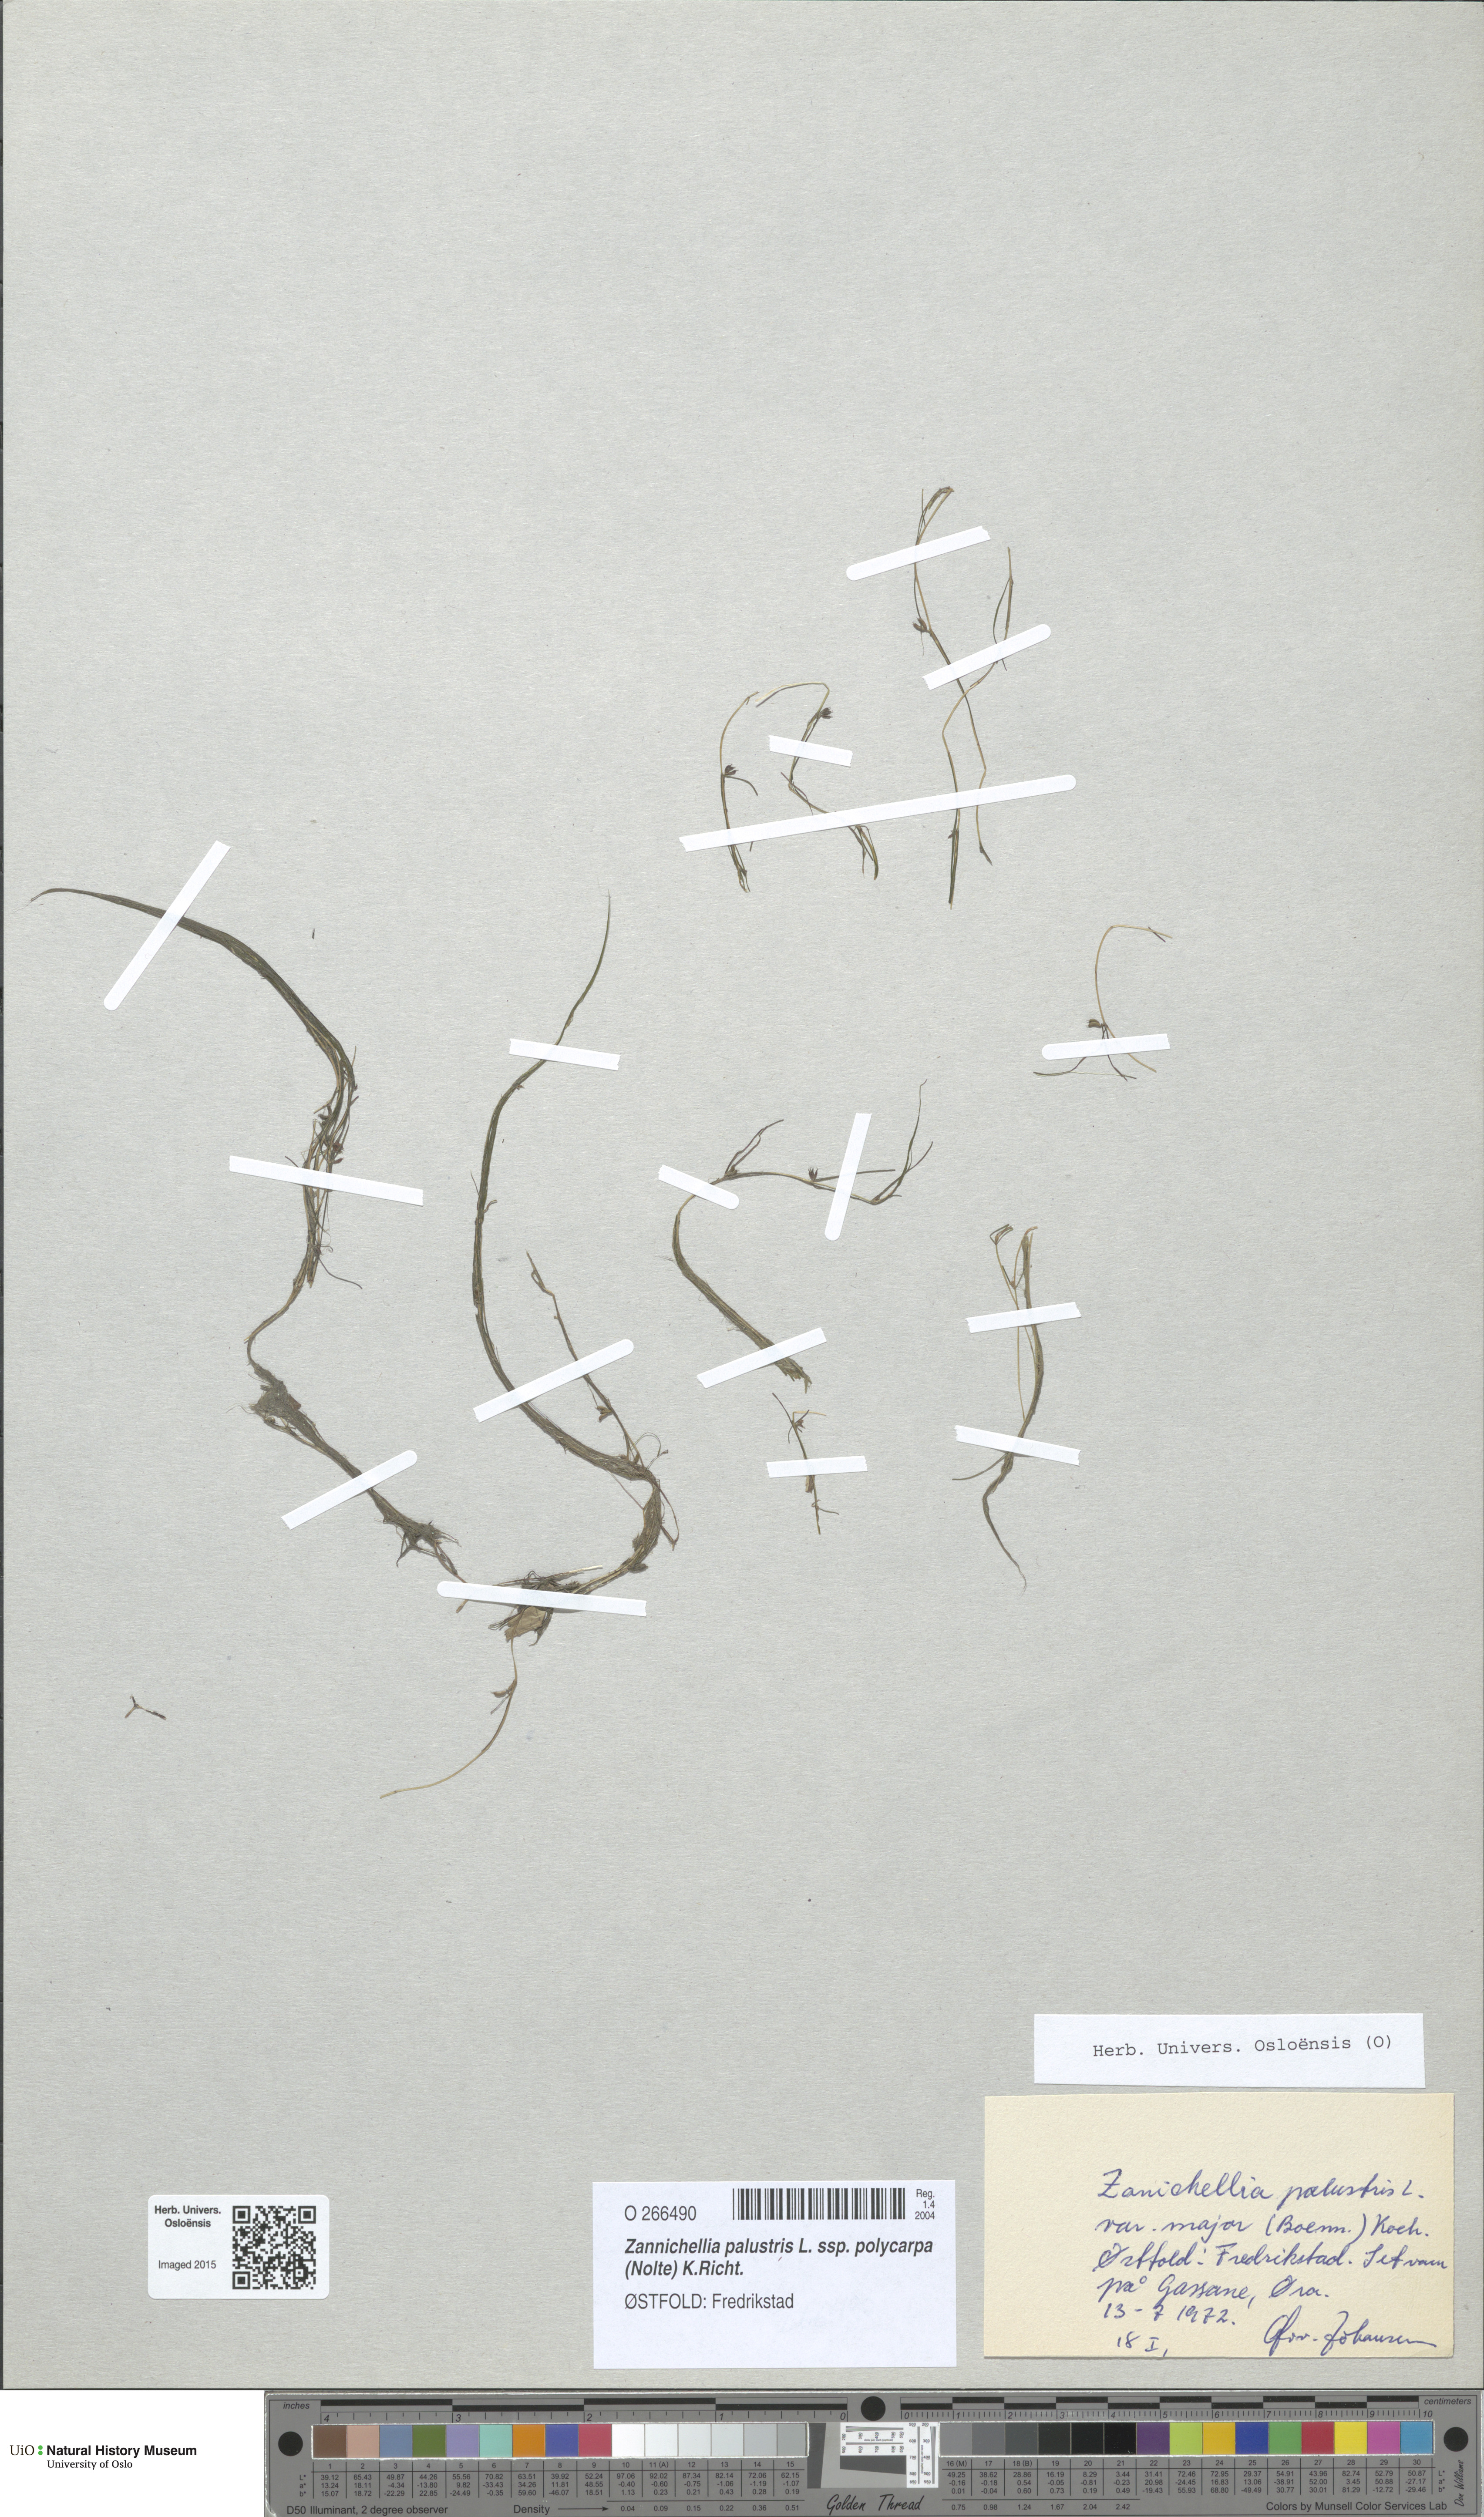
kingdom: Plantae
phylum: Tracheophyta
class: Liliopsida
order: Alismatales
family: Potamogetonaceae
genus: Zannichellia
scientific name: Zannichellia palustris
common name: Horned pondweed
